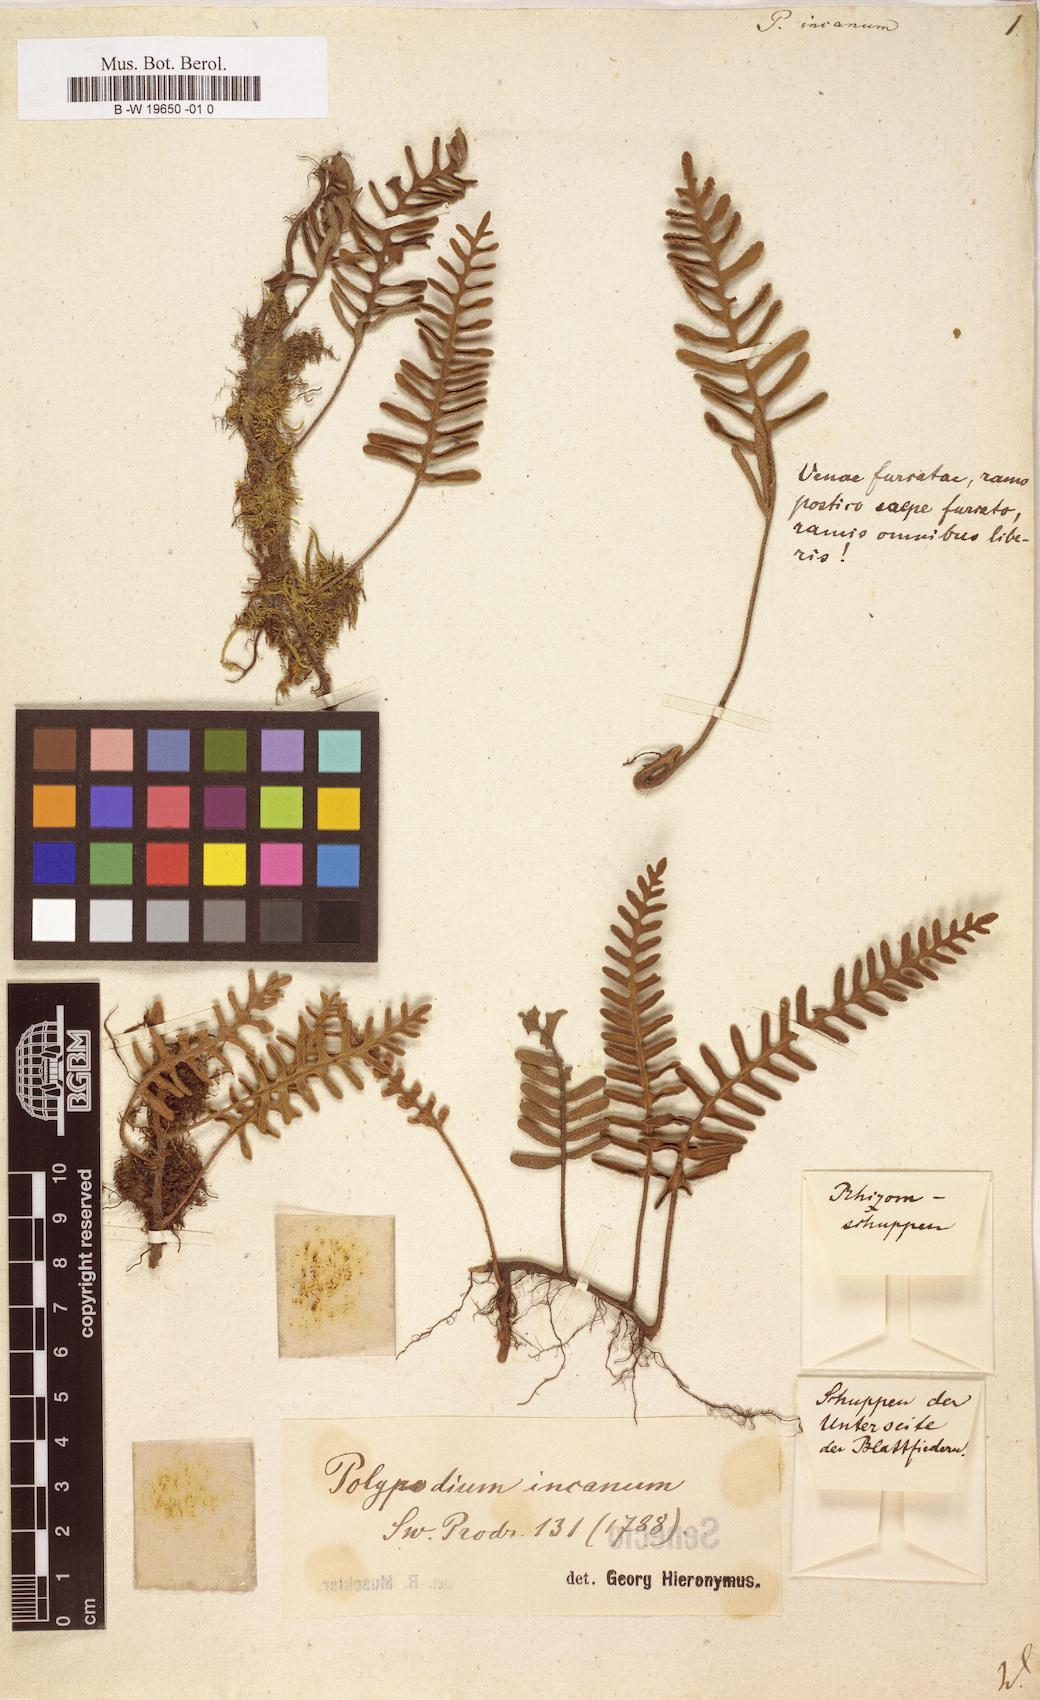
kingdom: Plantae
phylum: Tracheophyta
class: Polypodiopsida
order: Polypodiales
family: Polypodiaceae
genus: Pleopeltis
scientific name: Pleopeltis polypodioides
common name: Resurrection fern
